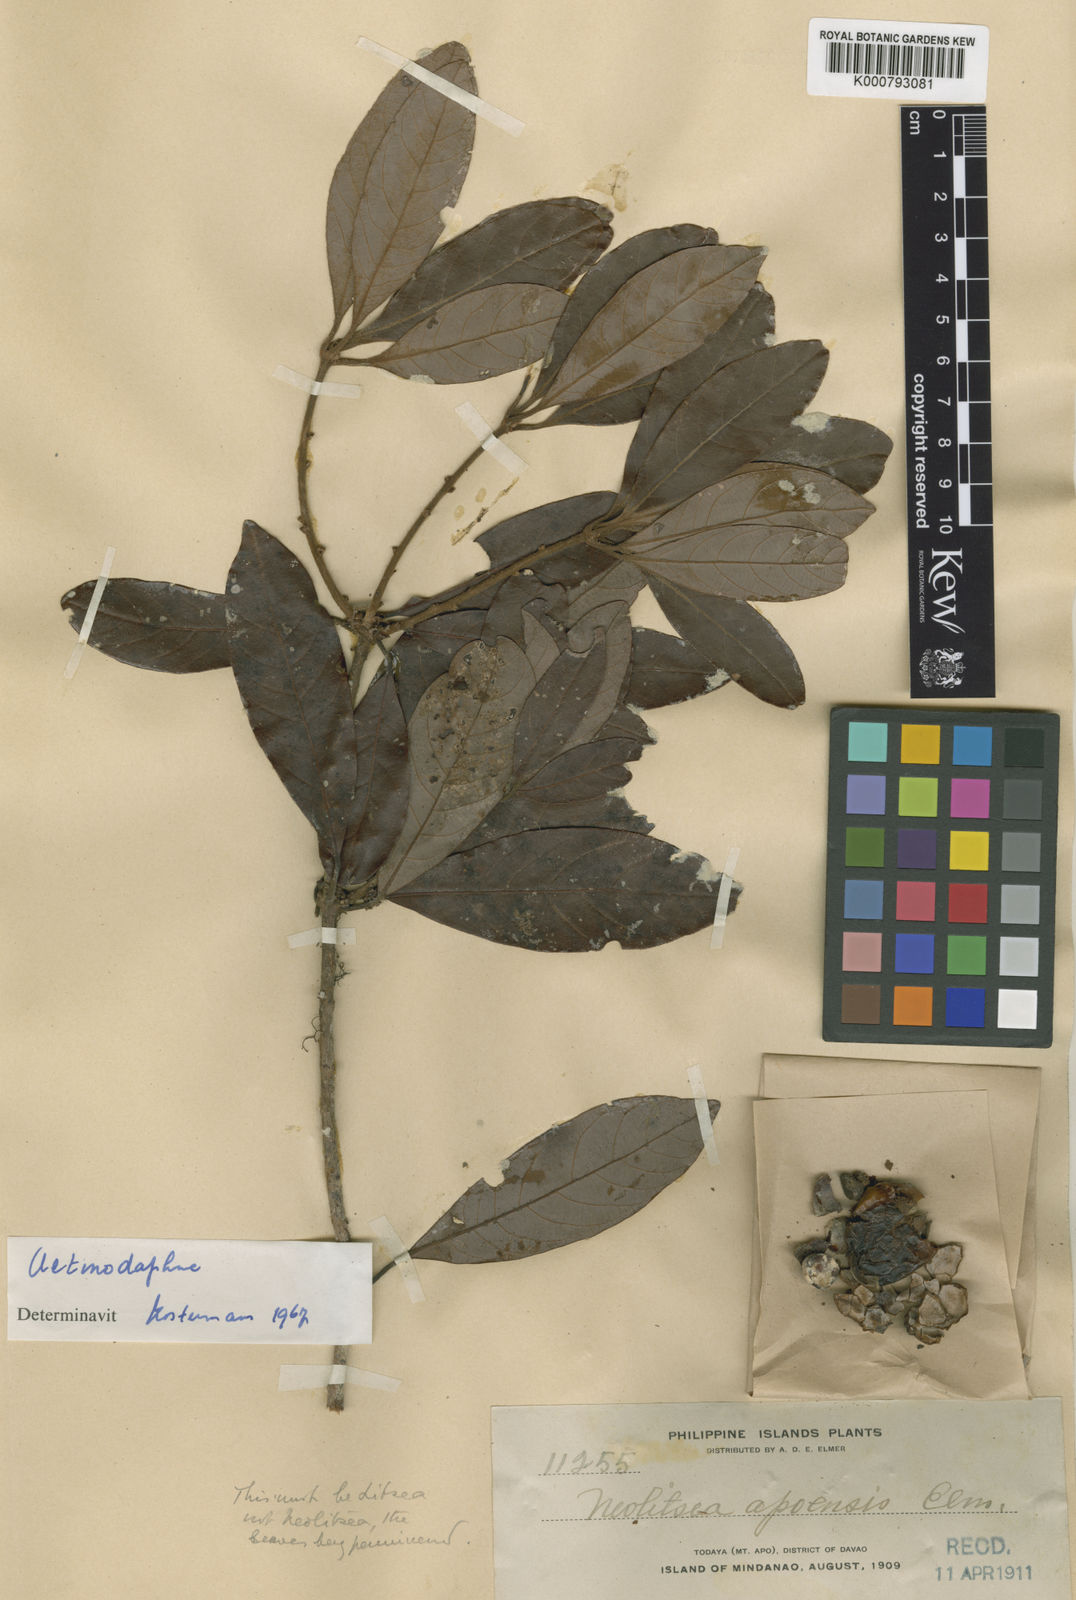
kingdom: Plantae
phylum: Tracheophyta
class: Magnoliopsida
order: Laurales
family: Lauraceae
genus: Litsea
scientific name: Litsea akoensis
